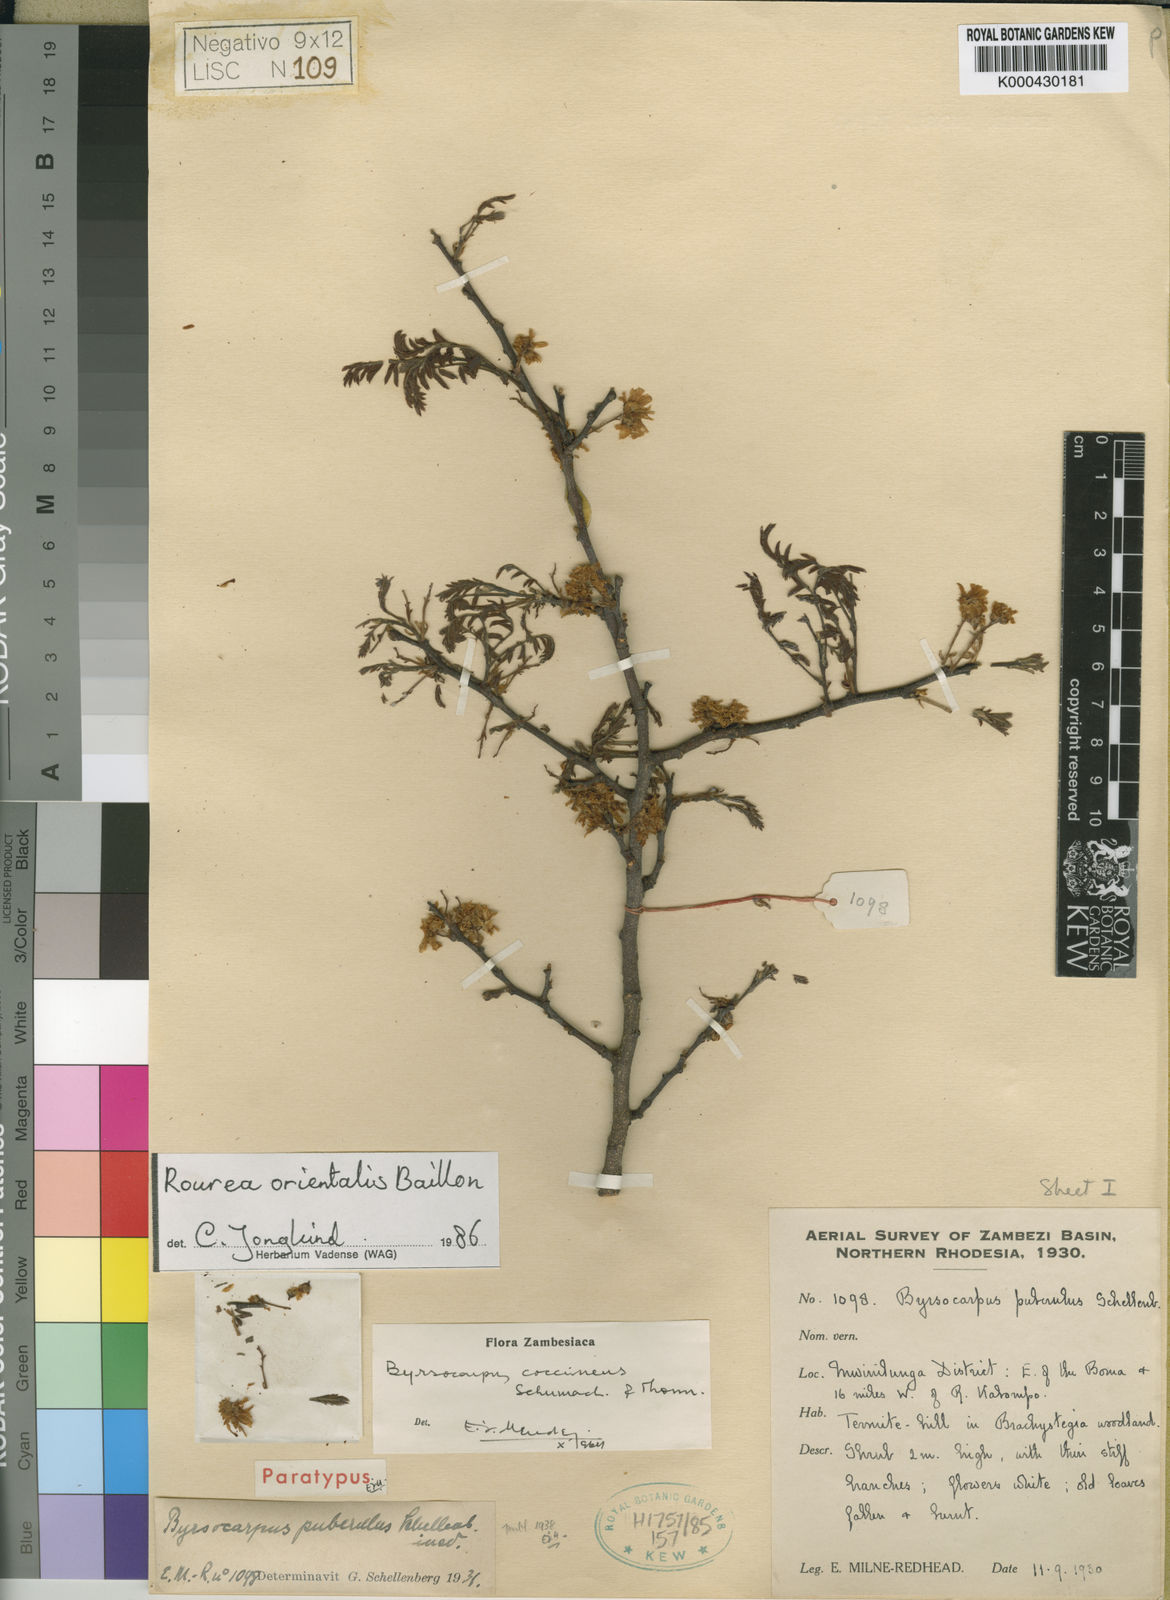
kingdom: Plantae
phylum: Tracheophyta
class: Magnoliopsida
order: Oxalidales
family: Connaraceae
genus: Rourea
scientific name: Rourea coccinea
